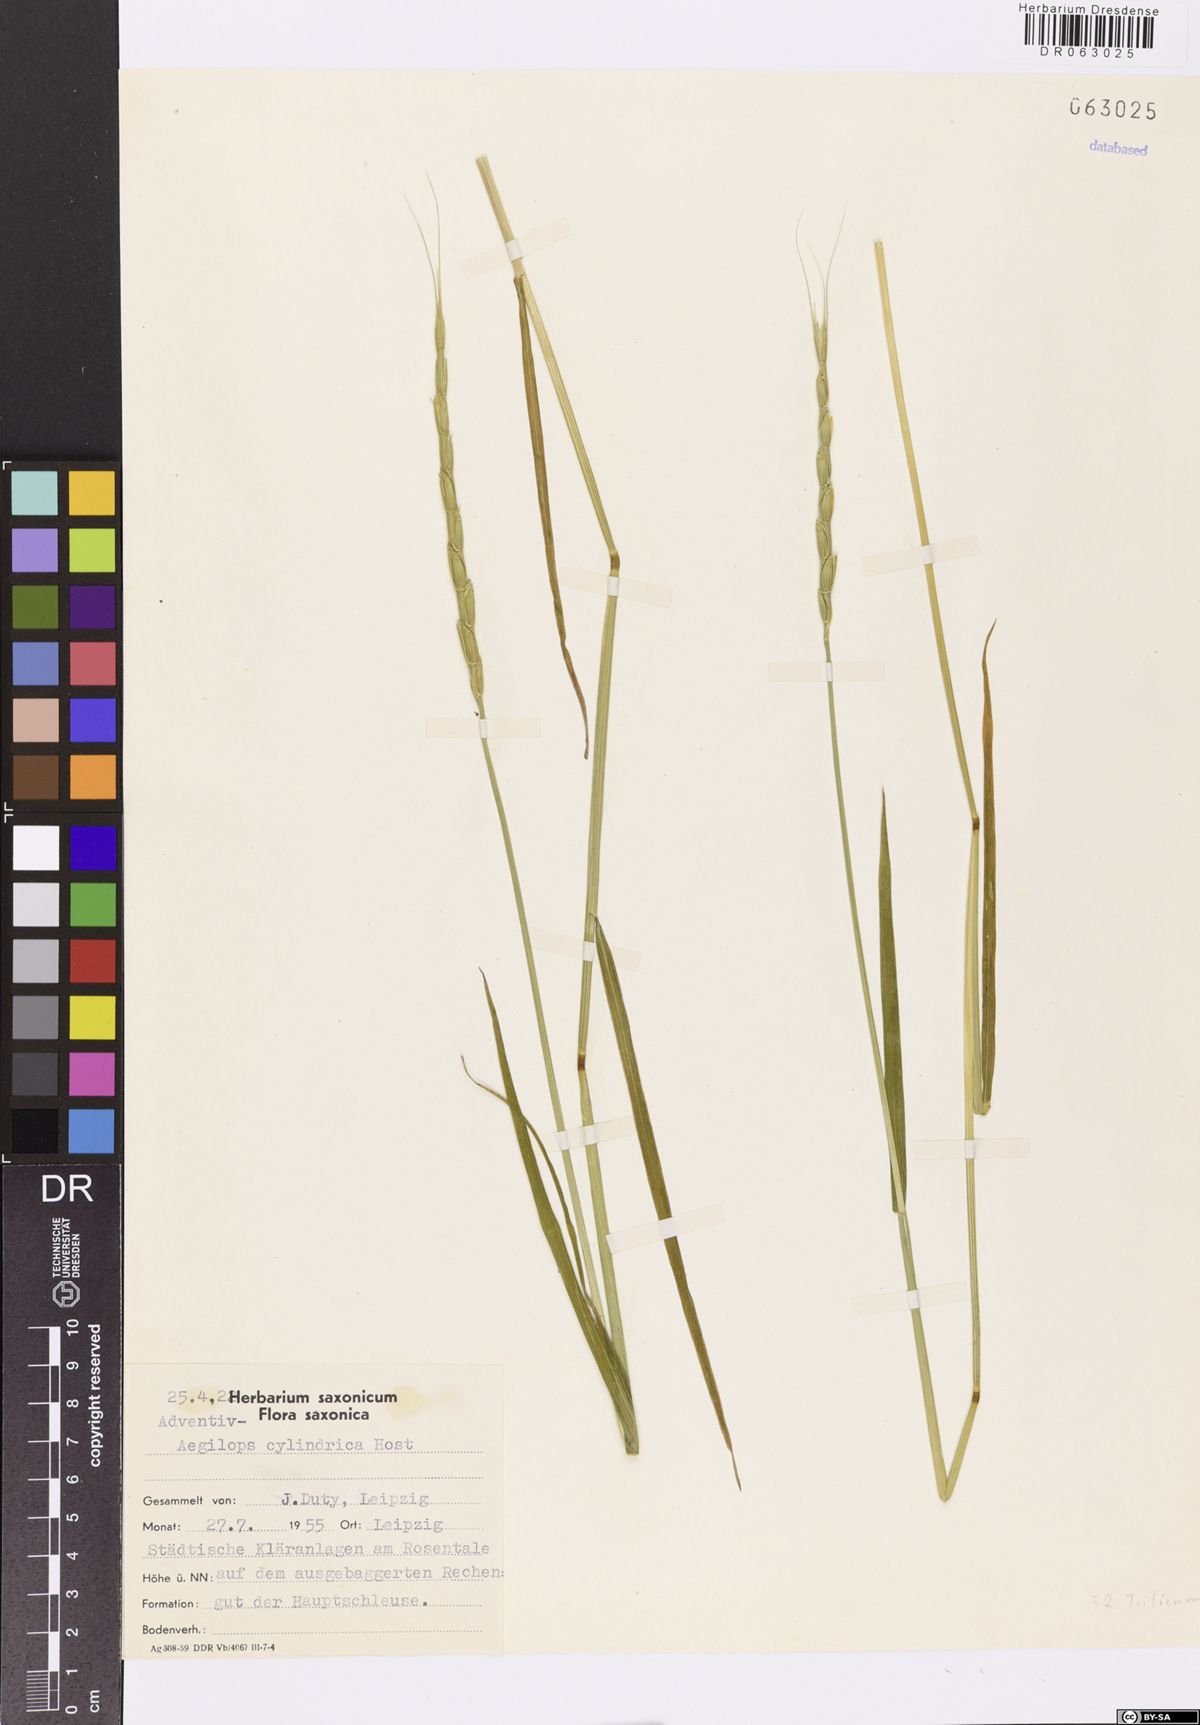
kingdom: Plantae
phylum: Tracheophyta
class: Liliopsida
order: Poales
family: Poaceae
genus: Aegilops
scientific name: Aegilops cylindrica
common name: Jointed goatgrass
